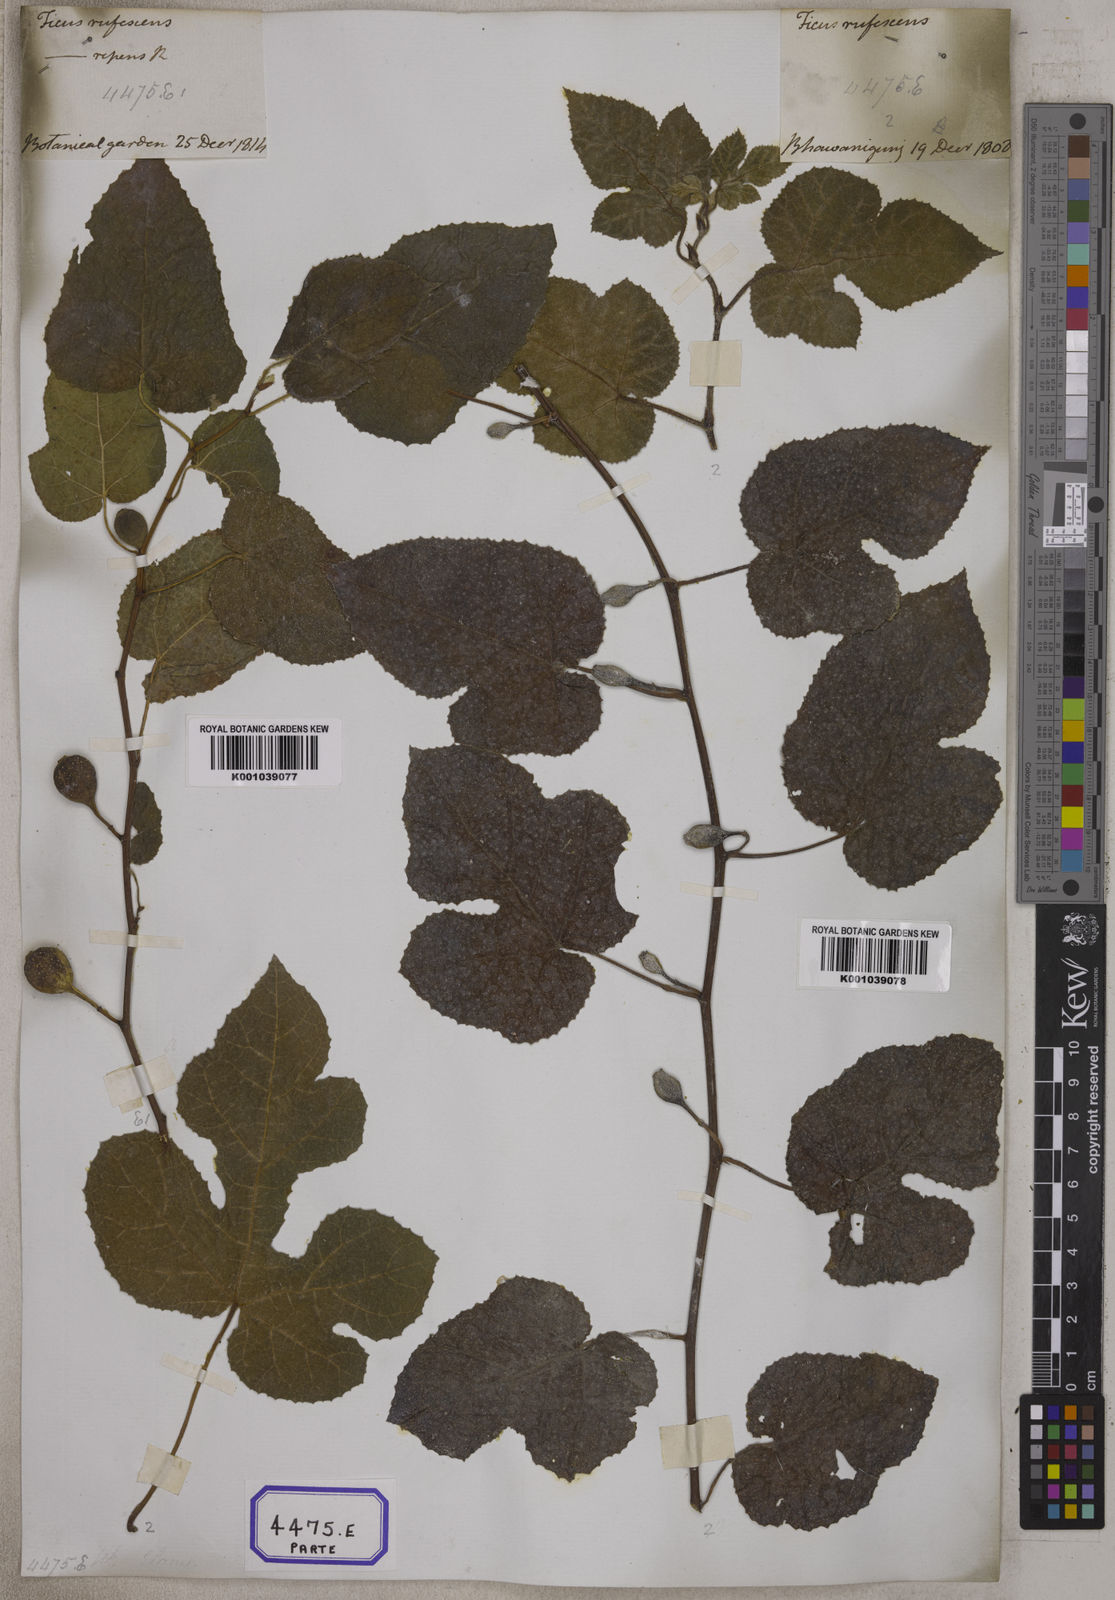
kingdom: Plantae
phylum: Tracheophyta
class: Magnoliopsida
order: Rosales
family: Moraceae
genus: Ficus
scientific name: Ficus
